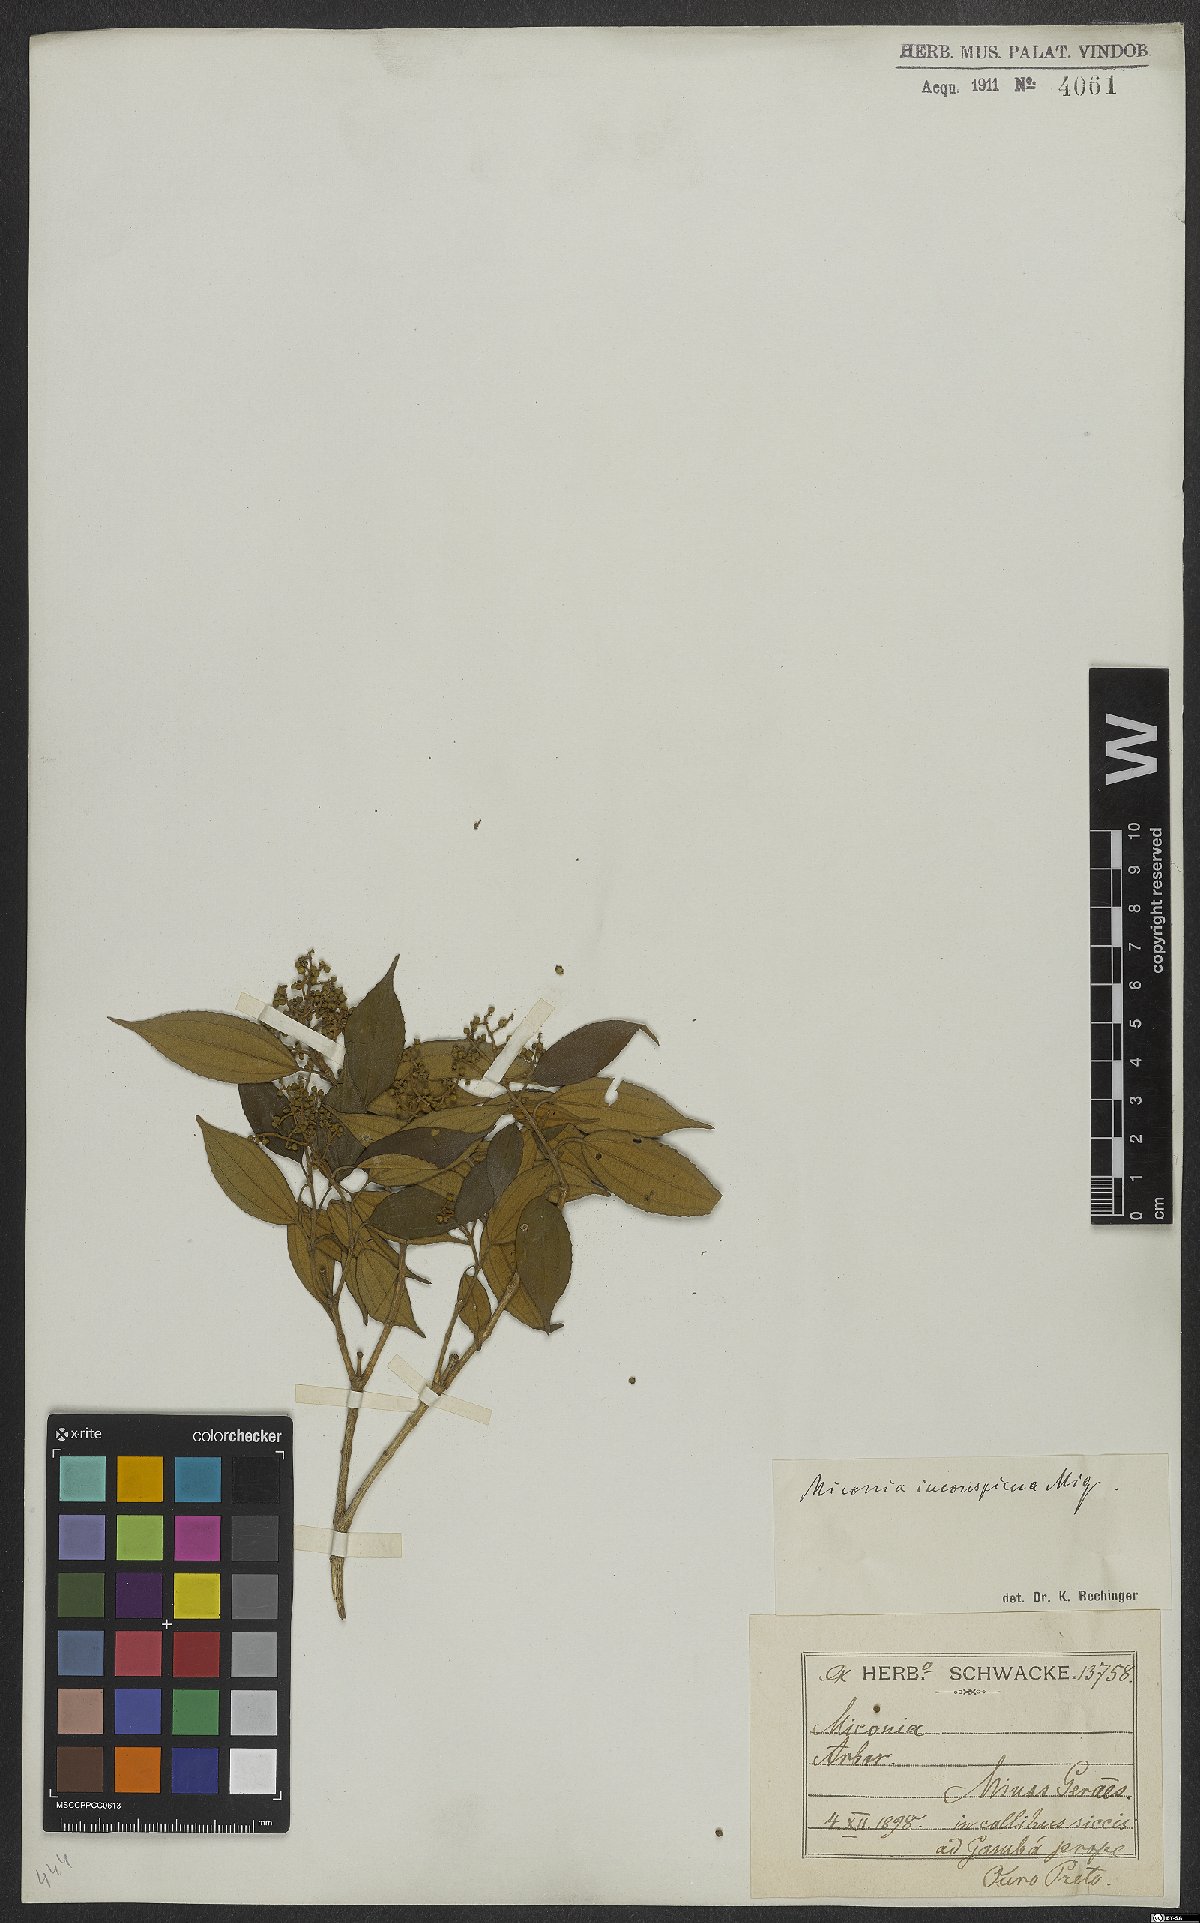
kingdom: Plantae
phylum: Tracheophyta
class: Magnoliopsida
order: Myrtales
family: Melastomataceae
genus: Miconia
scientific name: Miconia inconspicua
